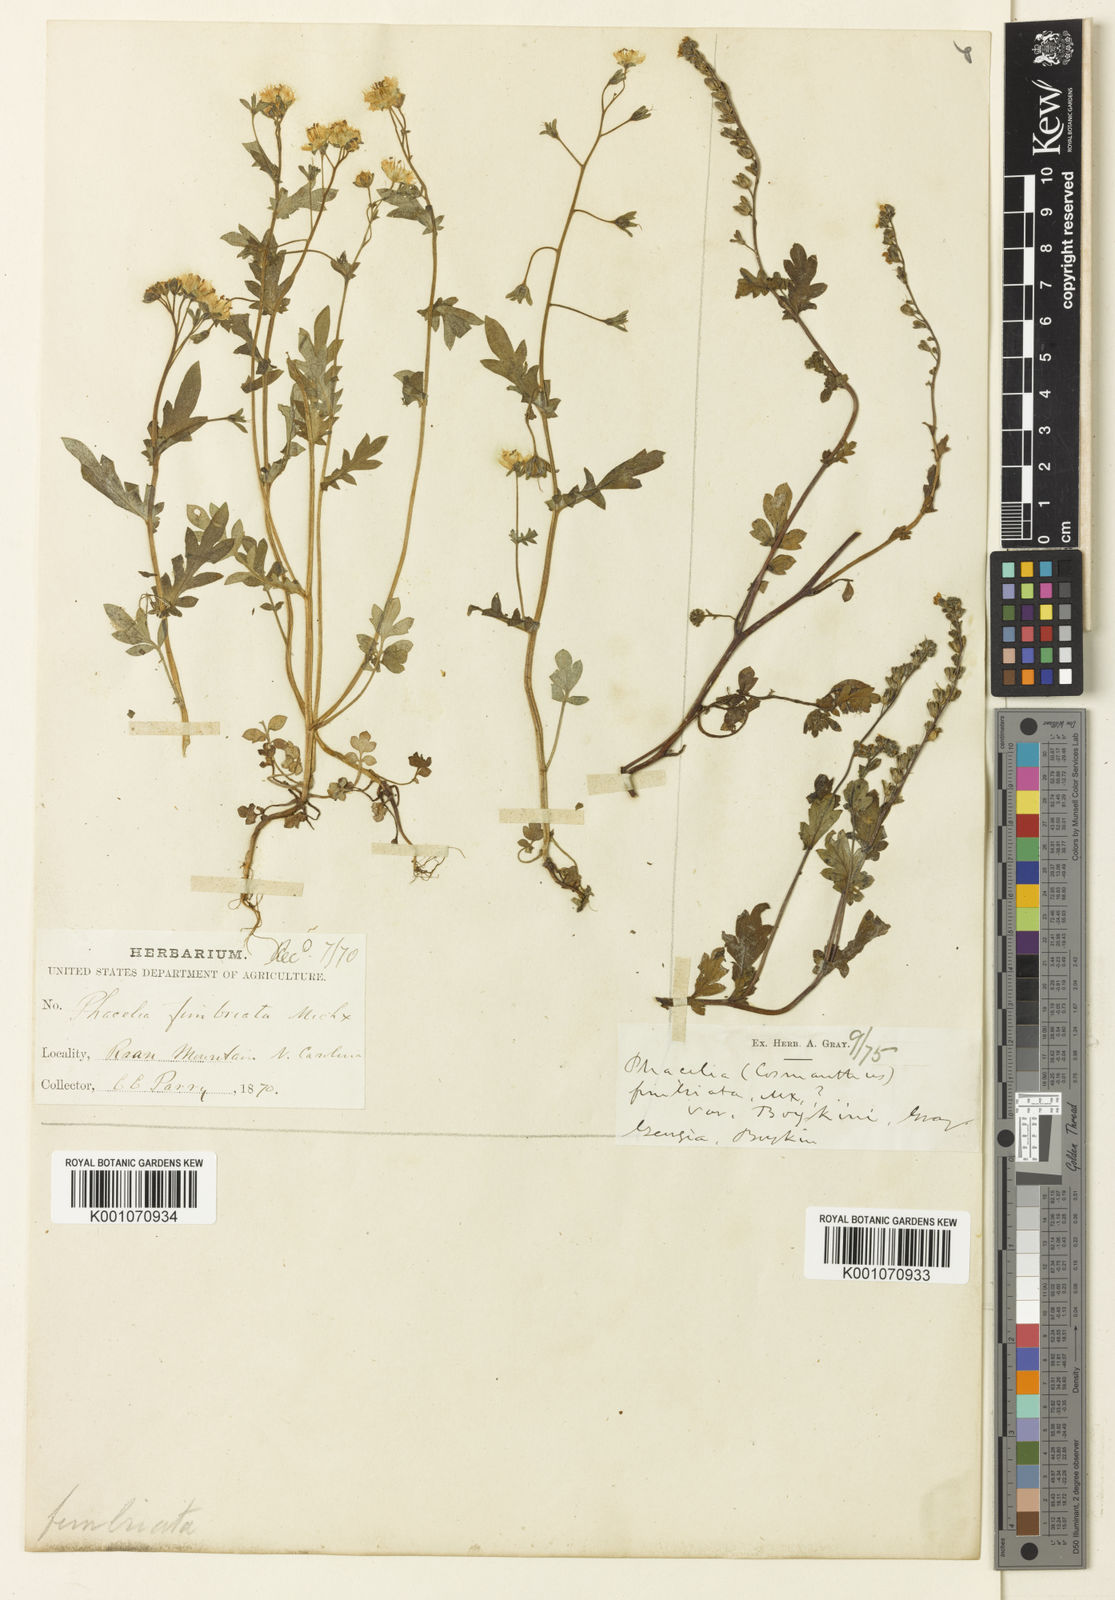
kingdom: Plantae
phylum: Tracheophyta
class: Magnoliopsida
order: Boraginales
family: Hydrophyllaceae
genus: Phacelia
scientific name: Phacelia purshii
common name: Miami-mist
